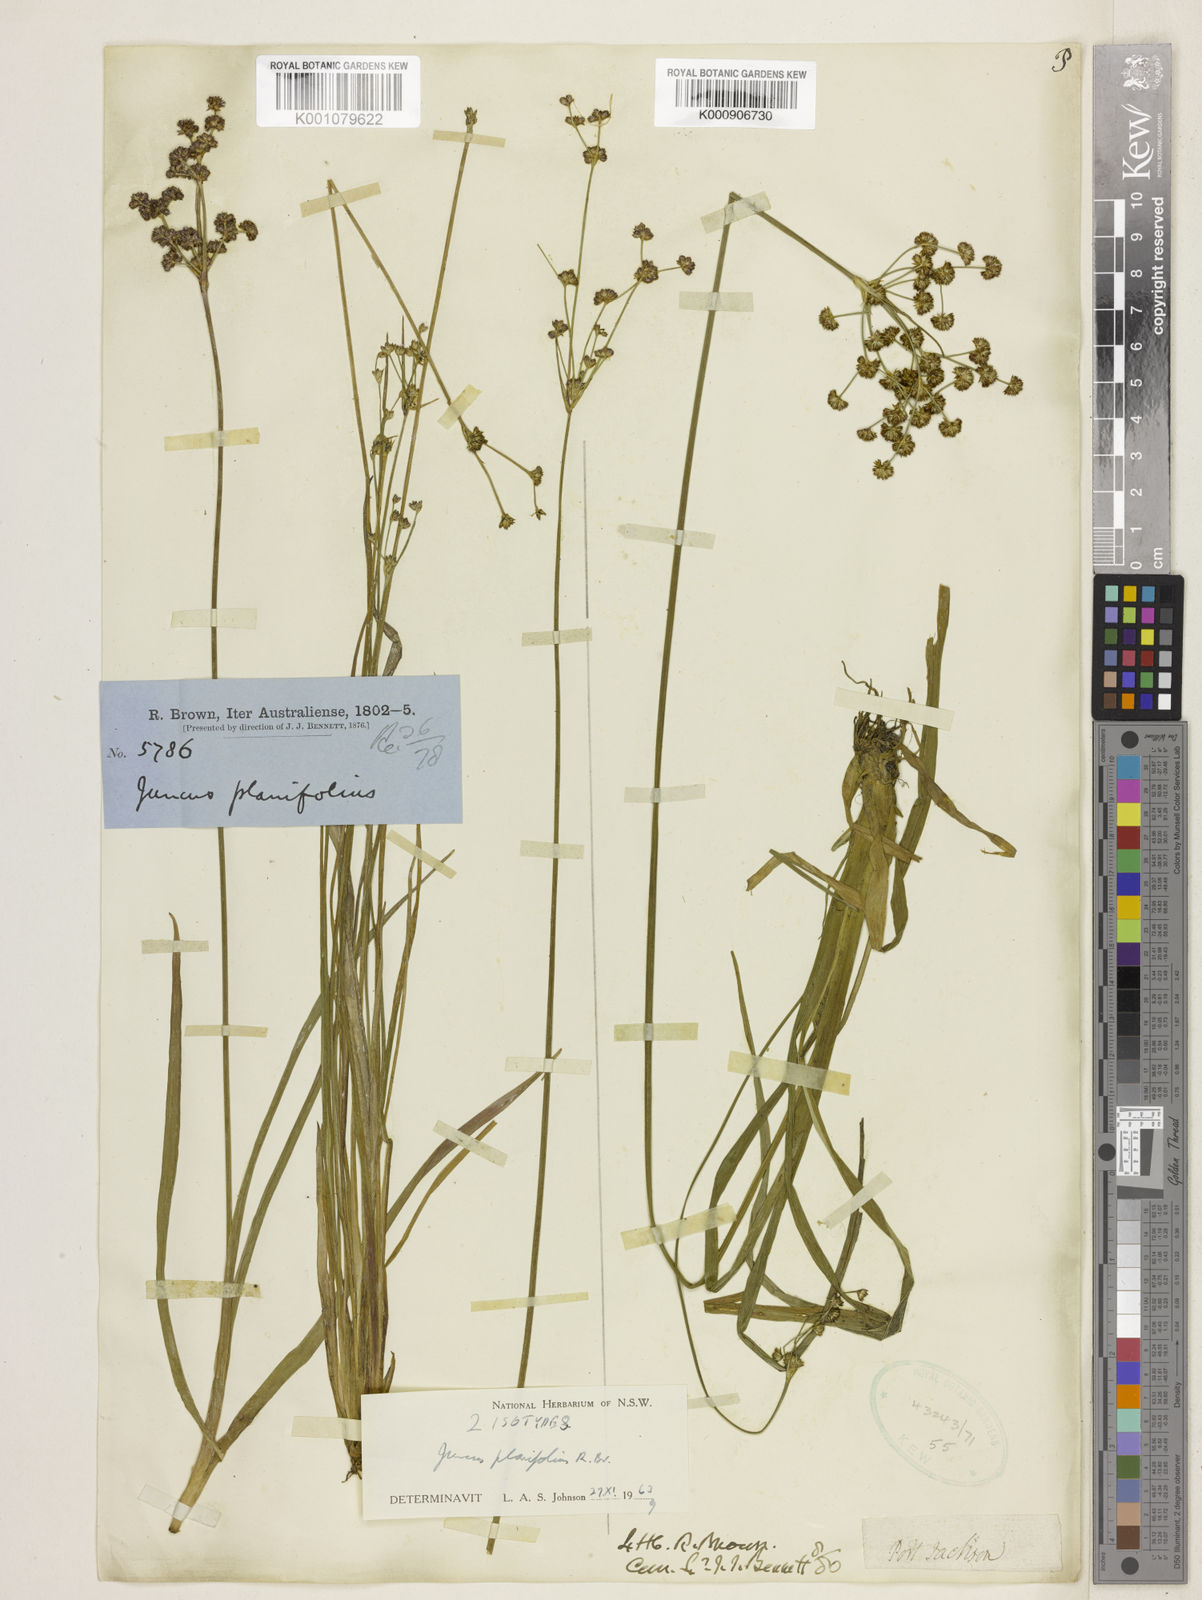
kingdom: Plantae
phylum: Tracheophyta
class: Liliopsida
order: Poales
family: Juncaceae
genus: Juncus
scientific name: Juncus planifolius
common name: Broadleaf rush
